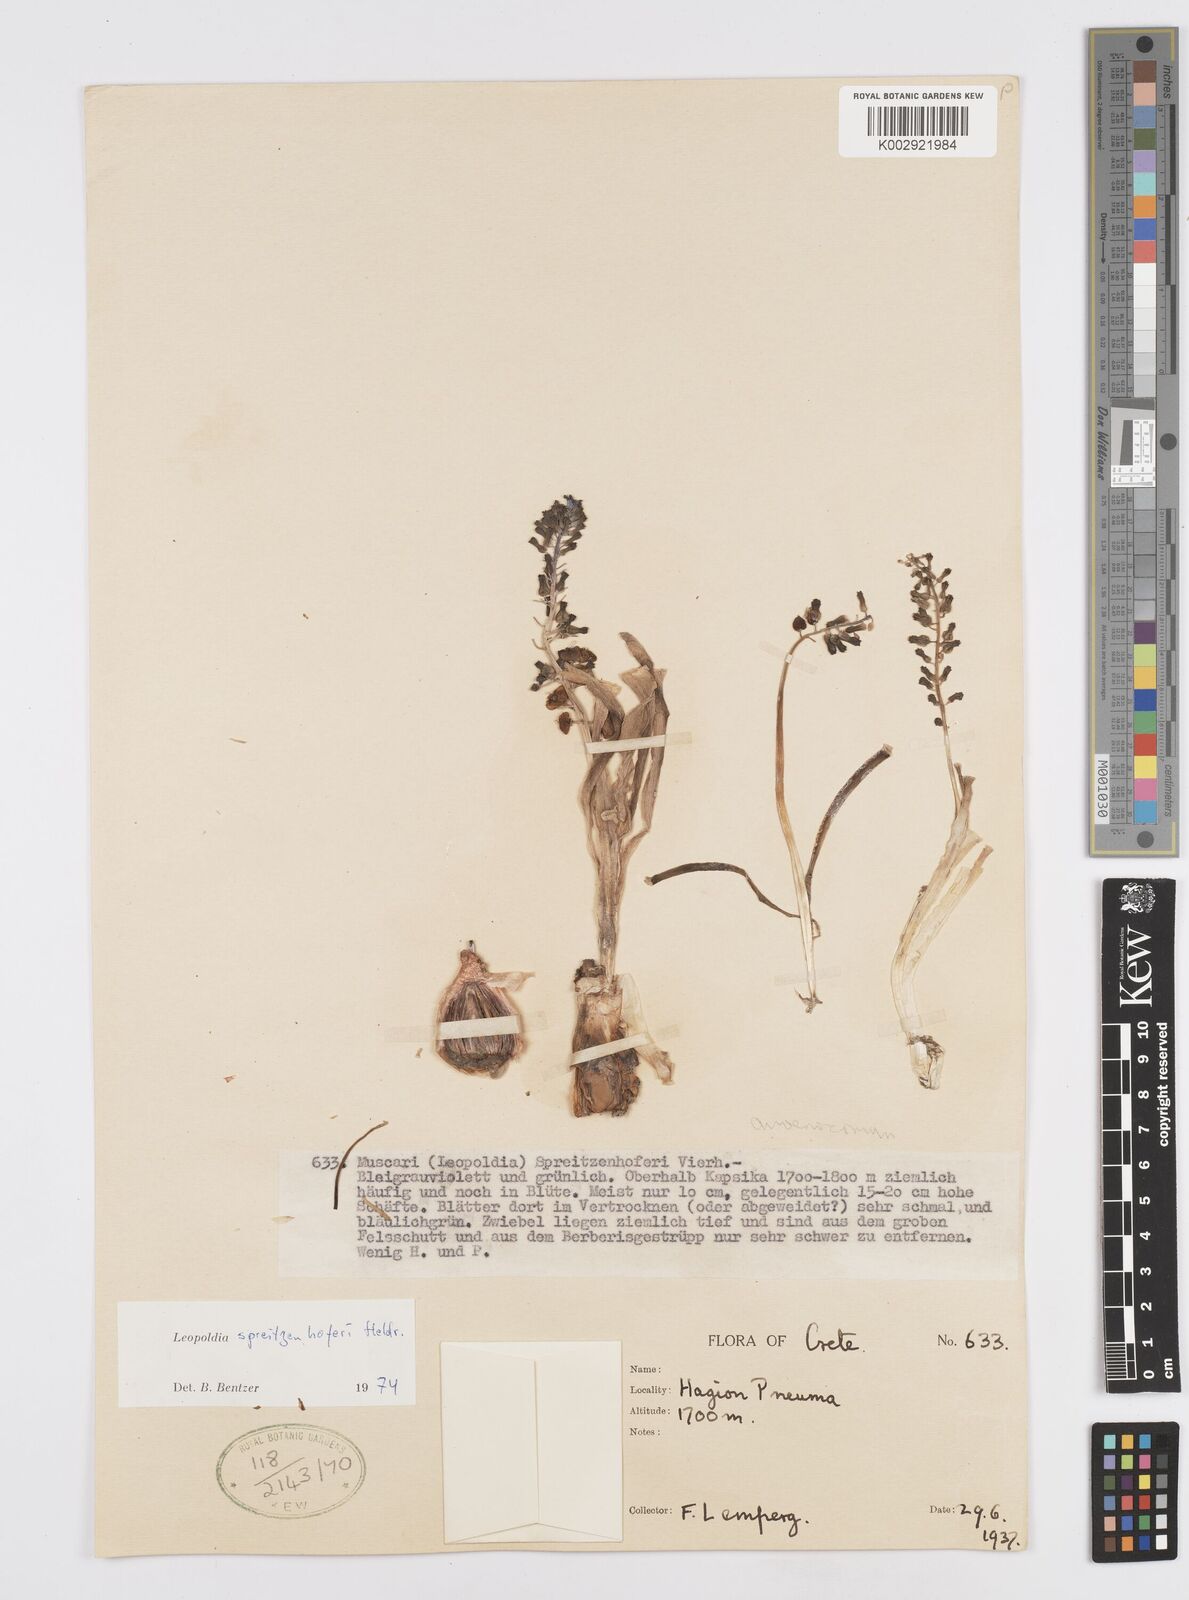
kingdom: Plantae
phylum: Tracheophyta
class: Liliopsida
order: Asparagales
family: Asparagaceae
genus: Muscari
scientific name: Muscari spreitzenhoferi
